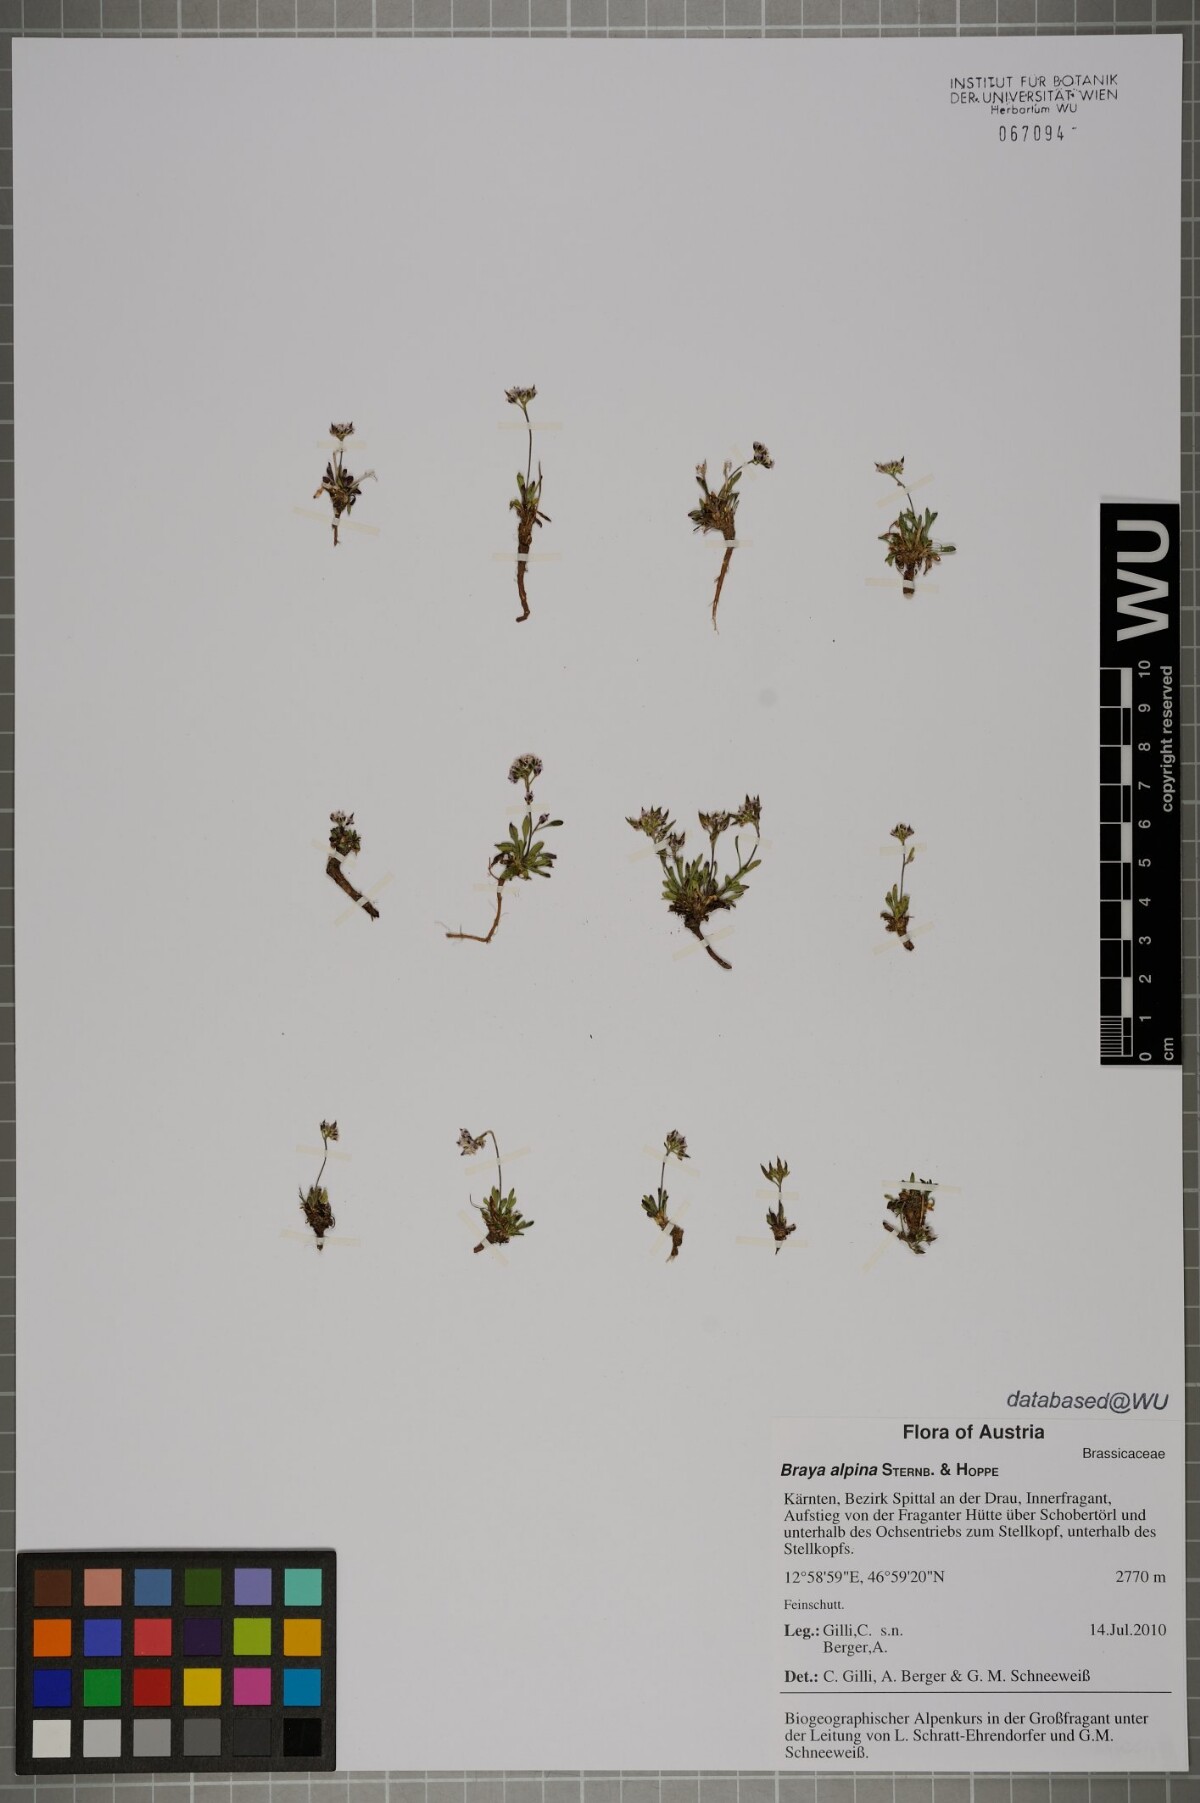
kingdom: Plantae
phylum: Tracheophyta
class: Magnoliopsida
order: Brassicales
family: Brassicaceae
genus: Braya
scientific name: Braya alpina
